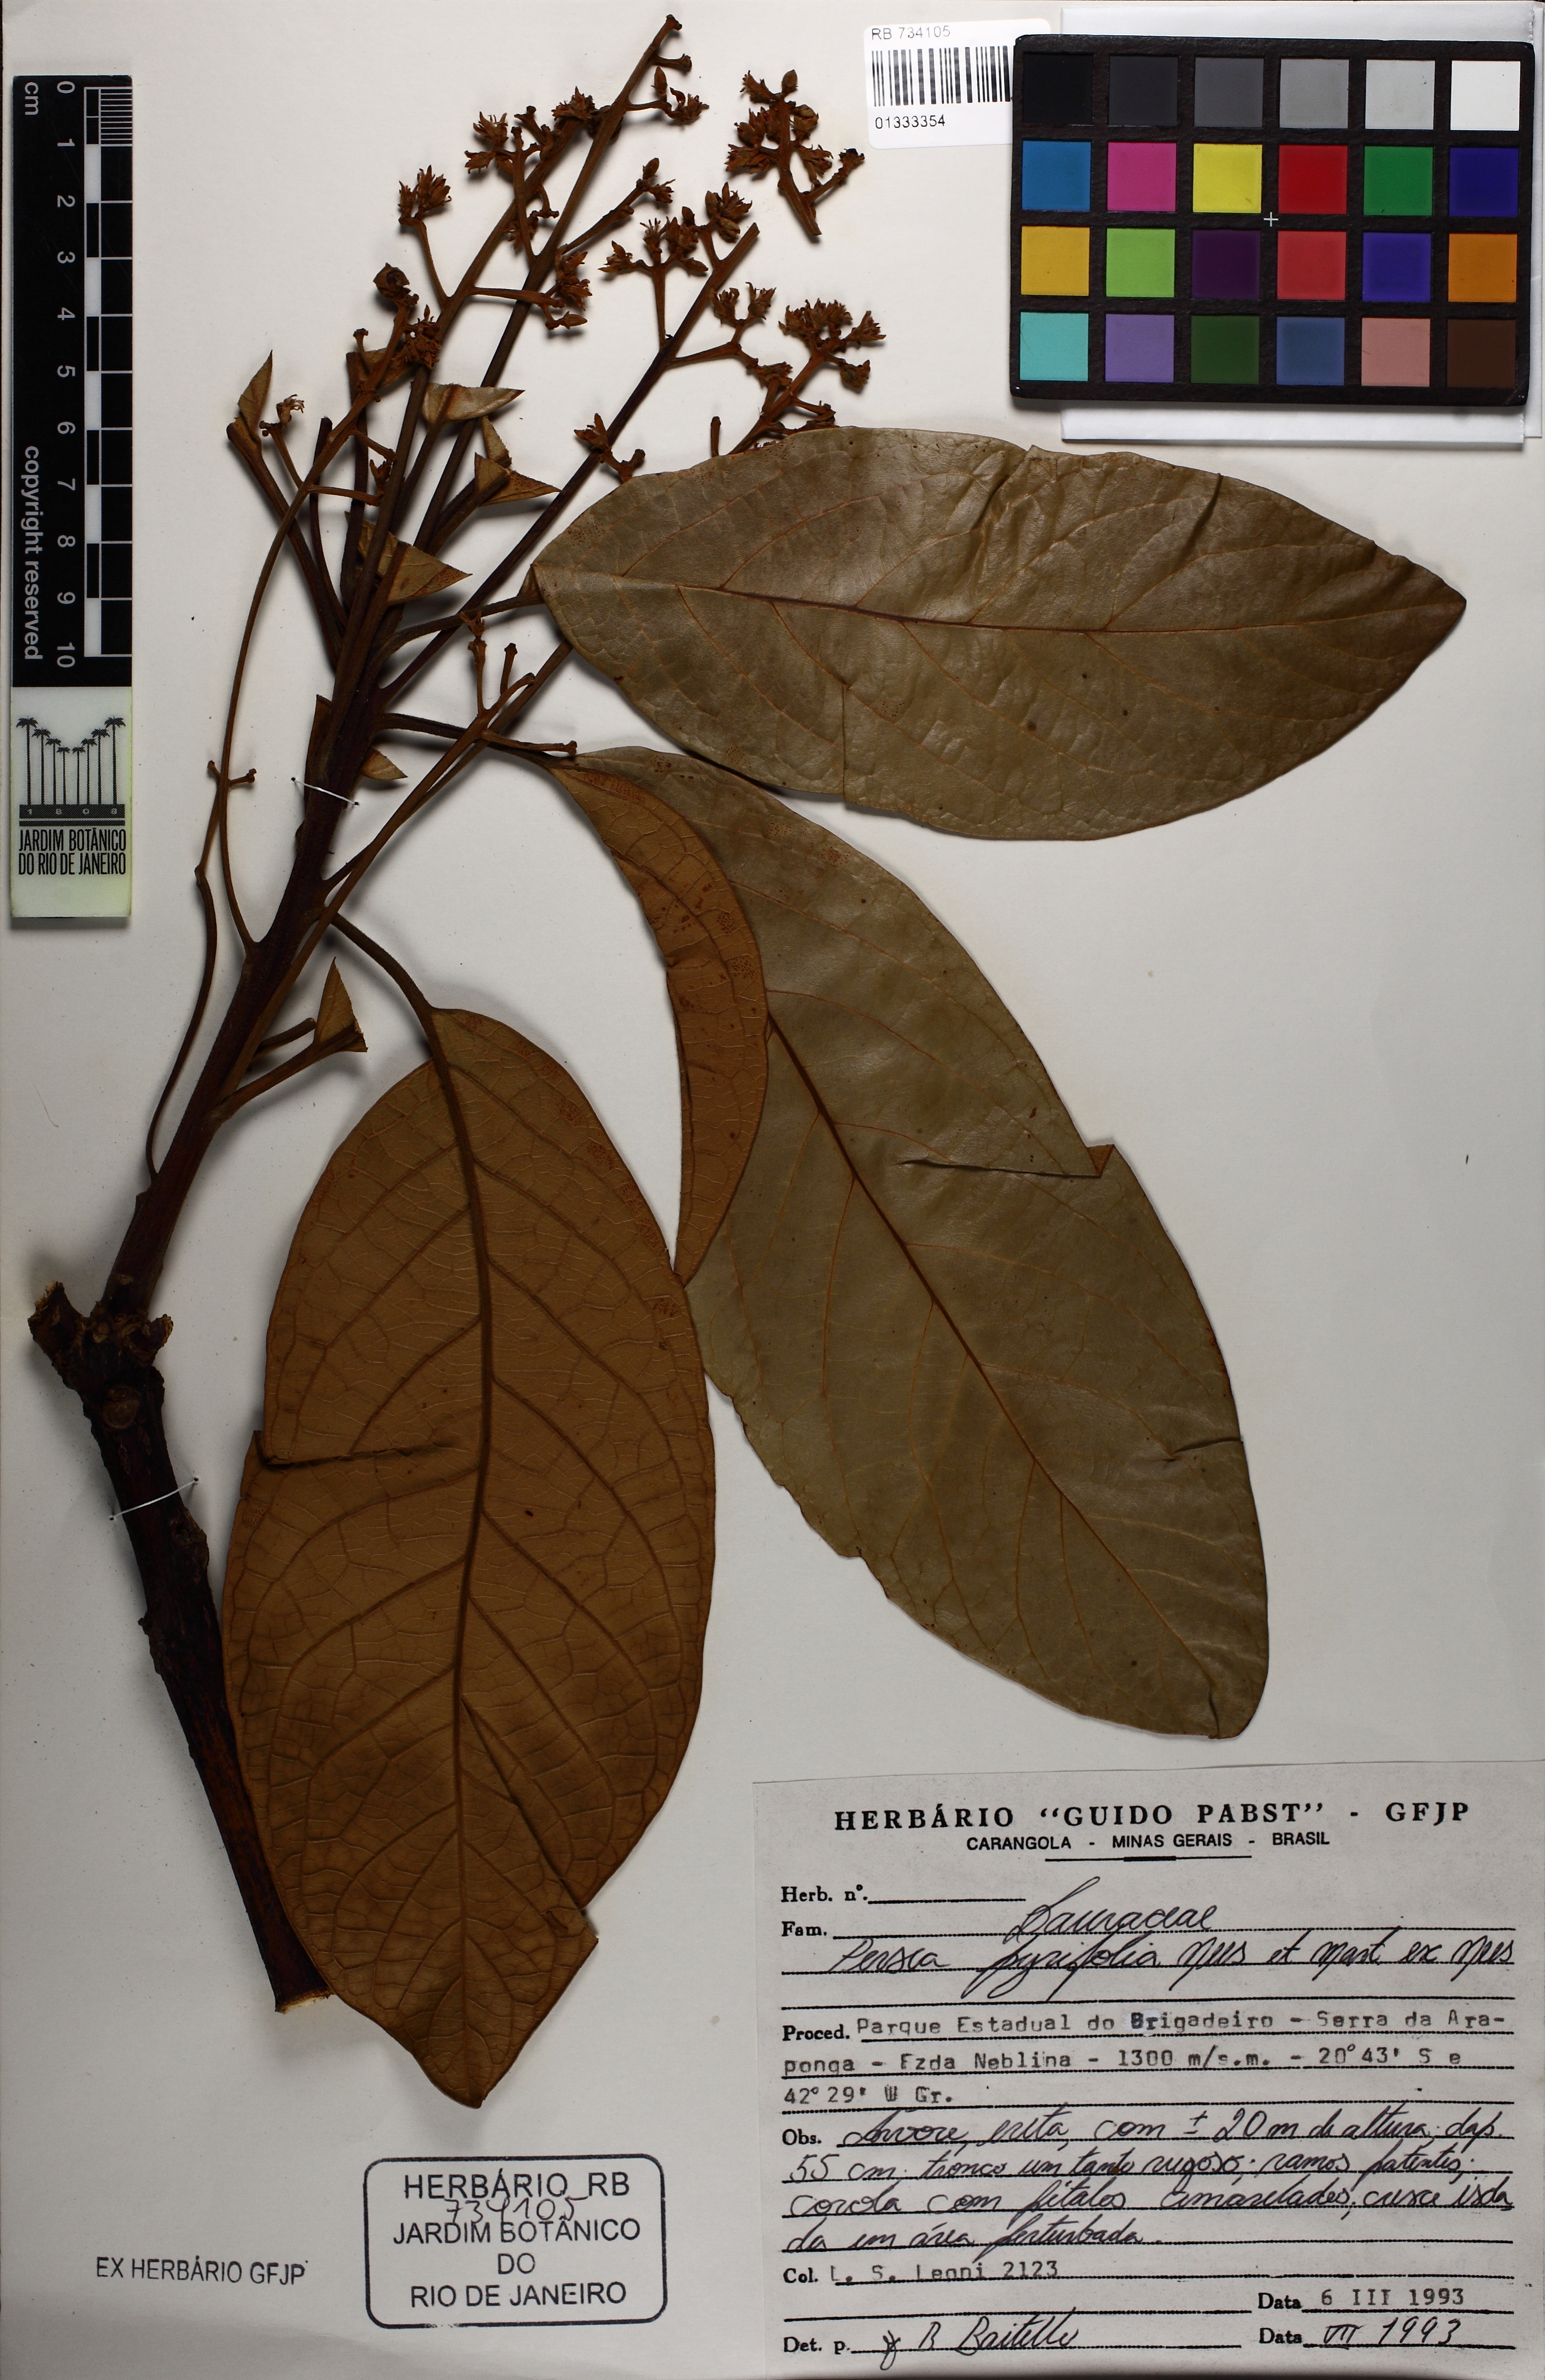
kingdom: Plantae
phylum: Tracheophyta
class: Magnoliopsida
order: Laurales
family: Lauraceae
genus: Persea
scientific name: Persea pyrifolia
